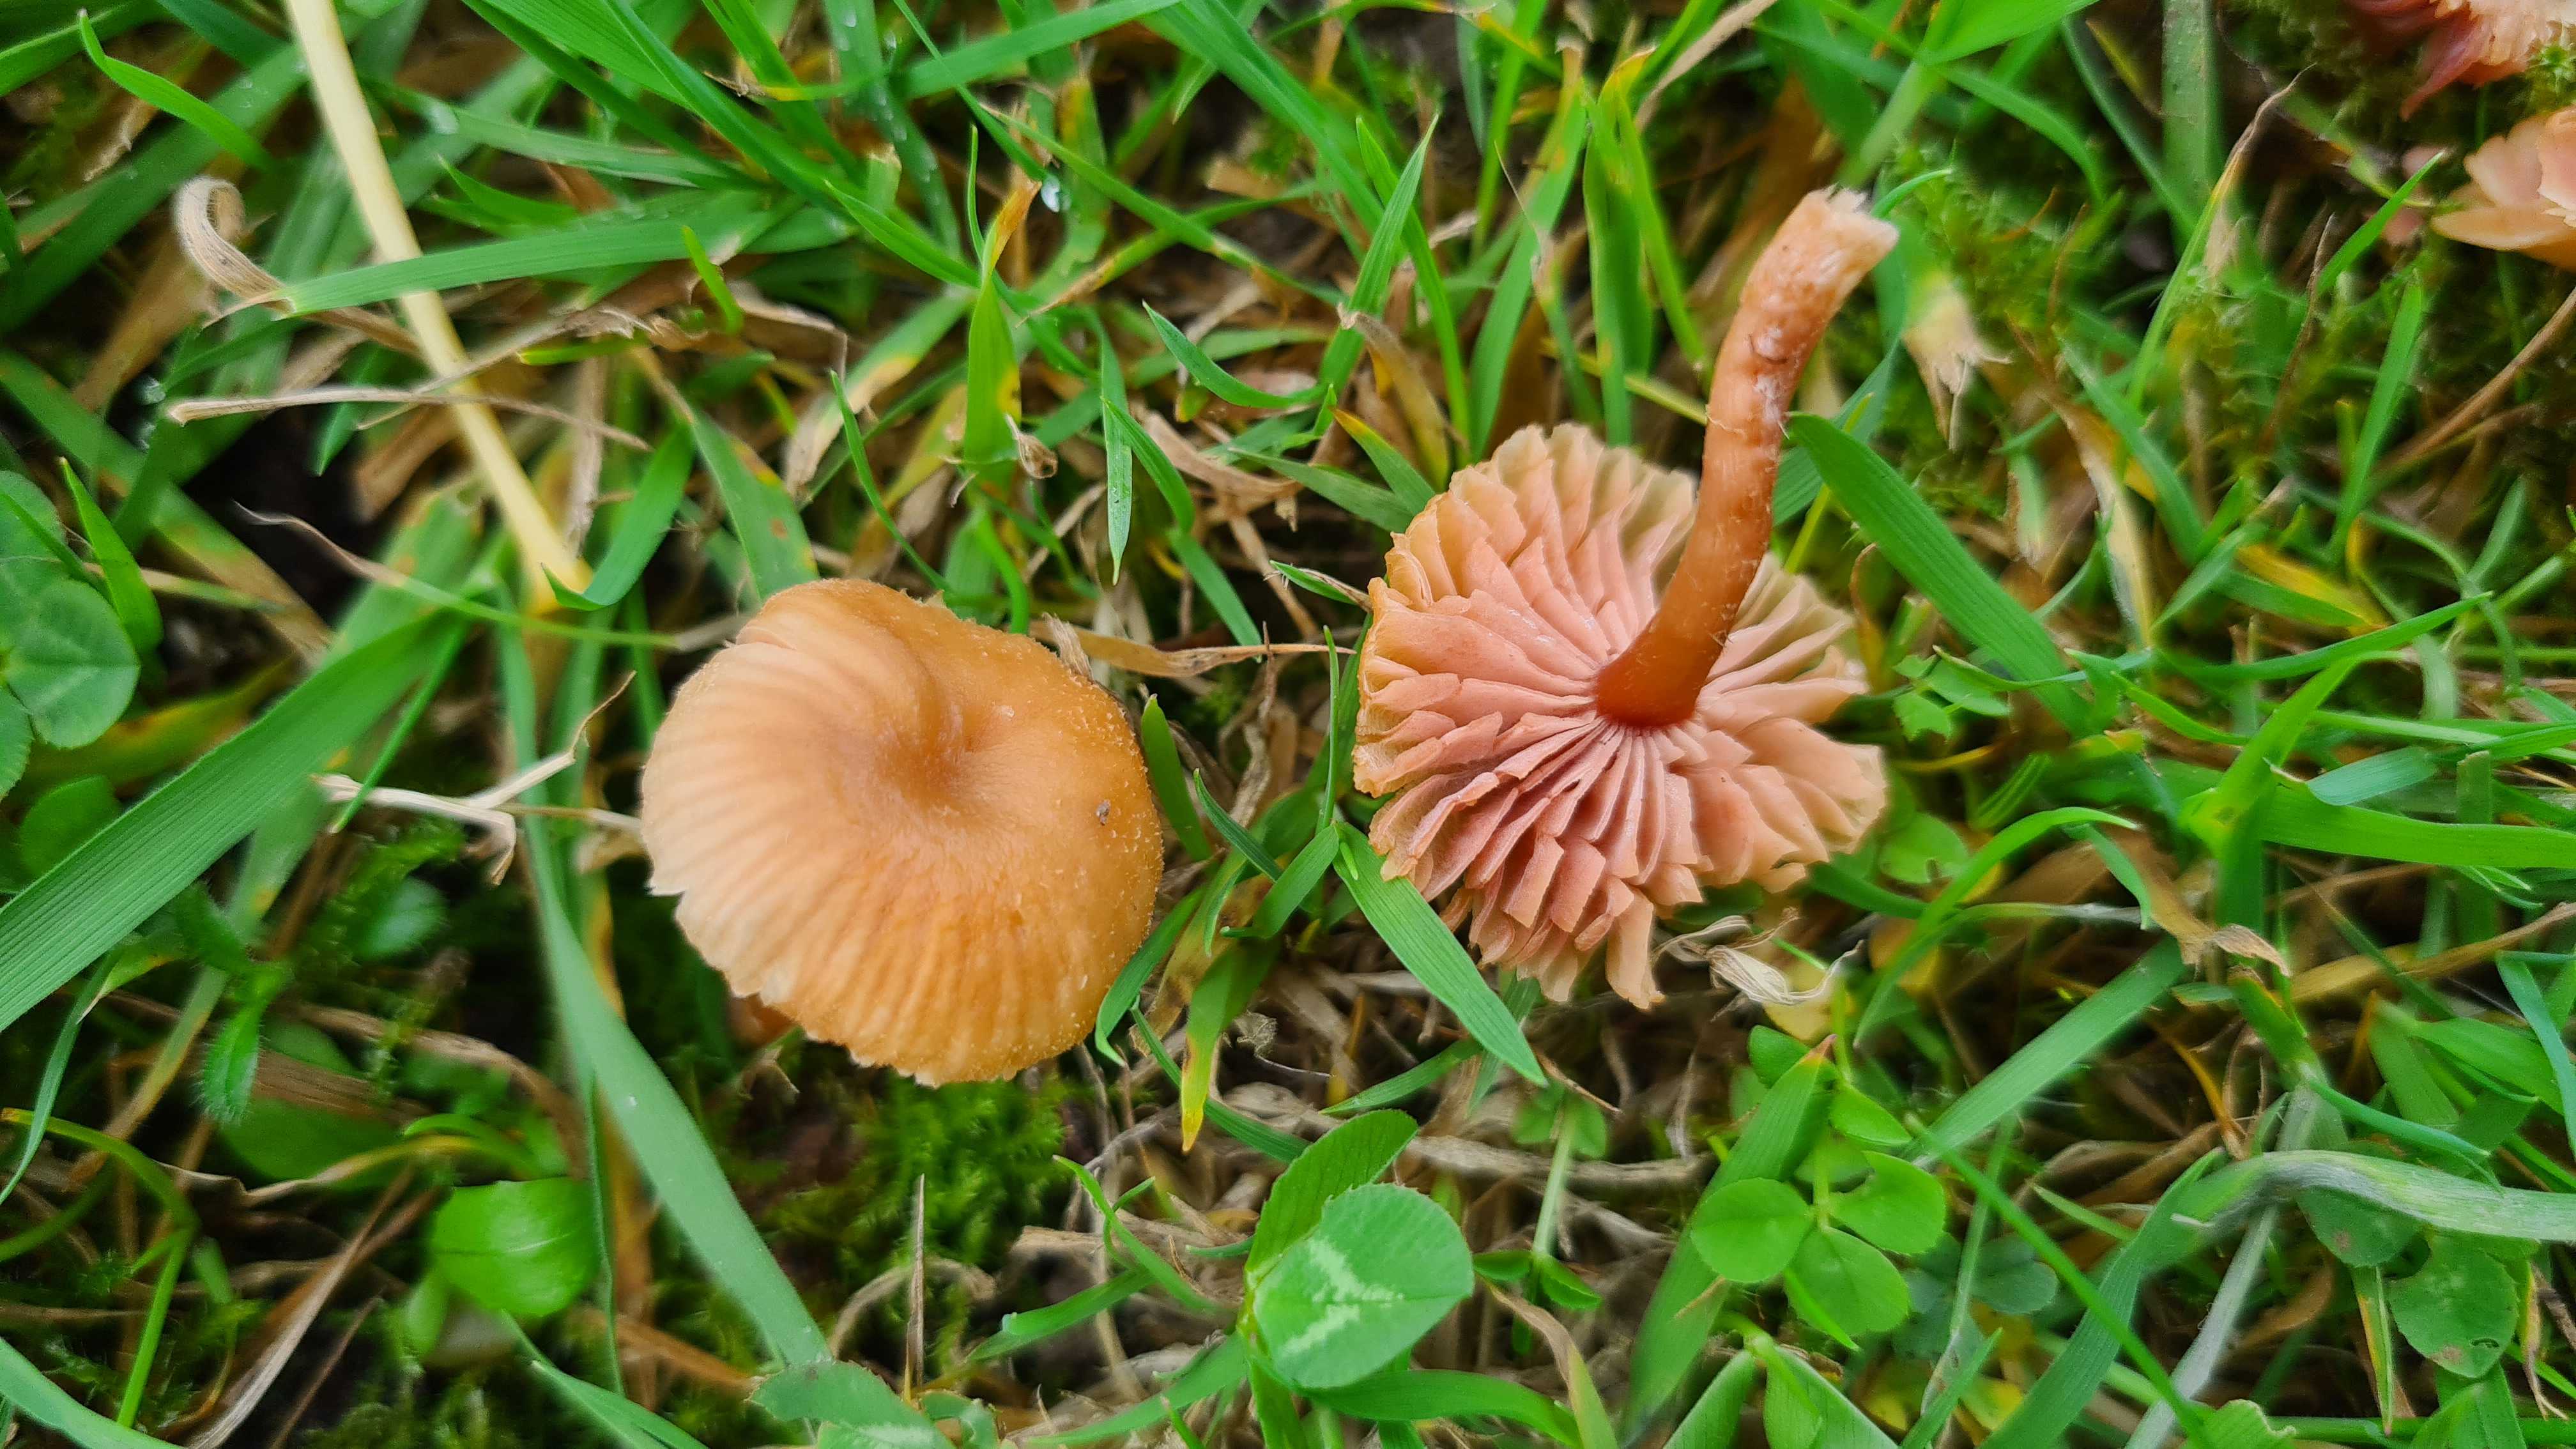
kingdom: Fungi
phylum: Basidiomycota
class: Agaricomycetes
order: Agaricales
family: Hydnangiaceae
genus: Laccaria
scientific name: Laccaria laccata
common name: rød ametysthat
